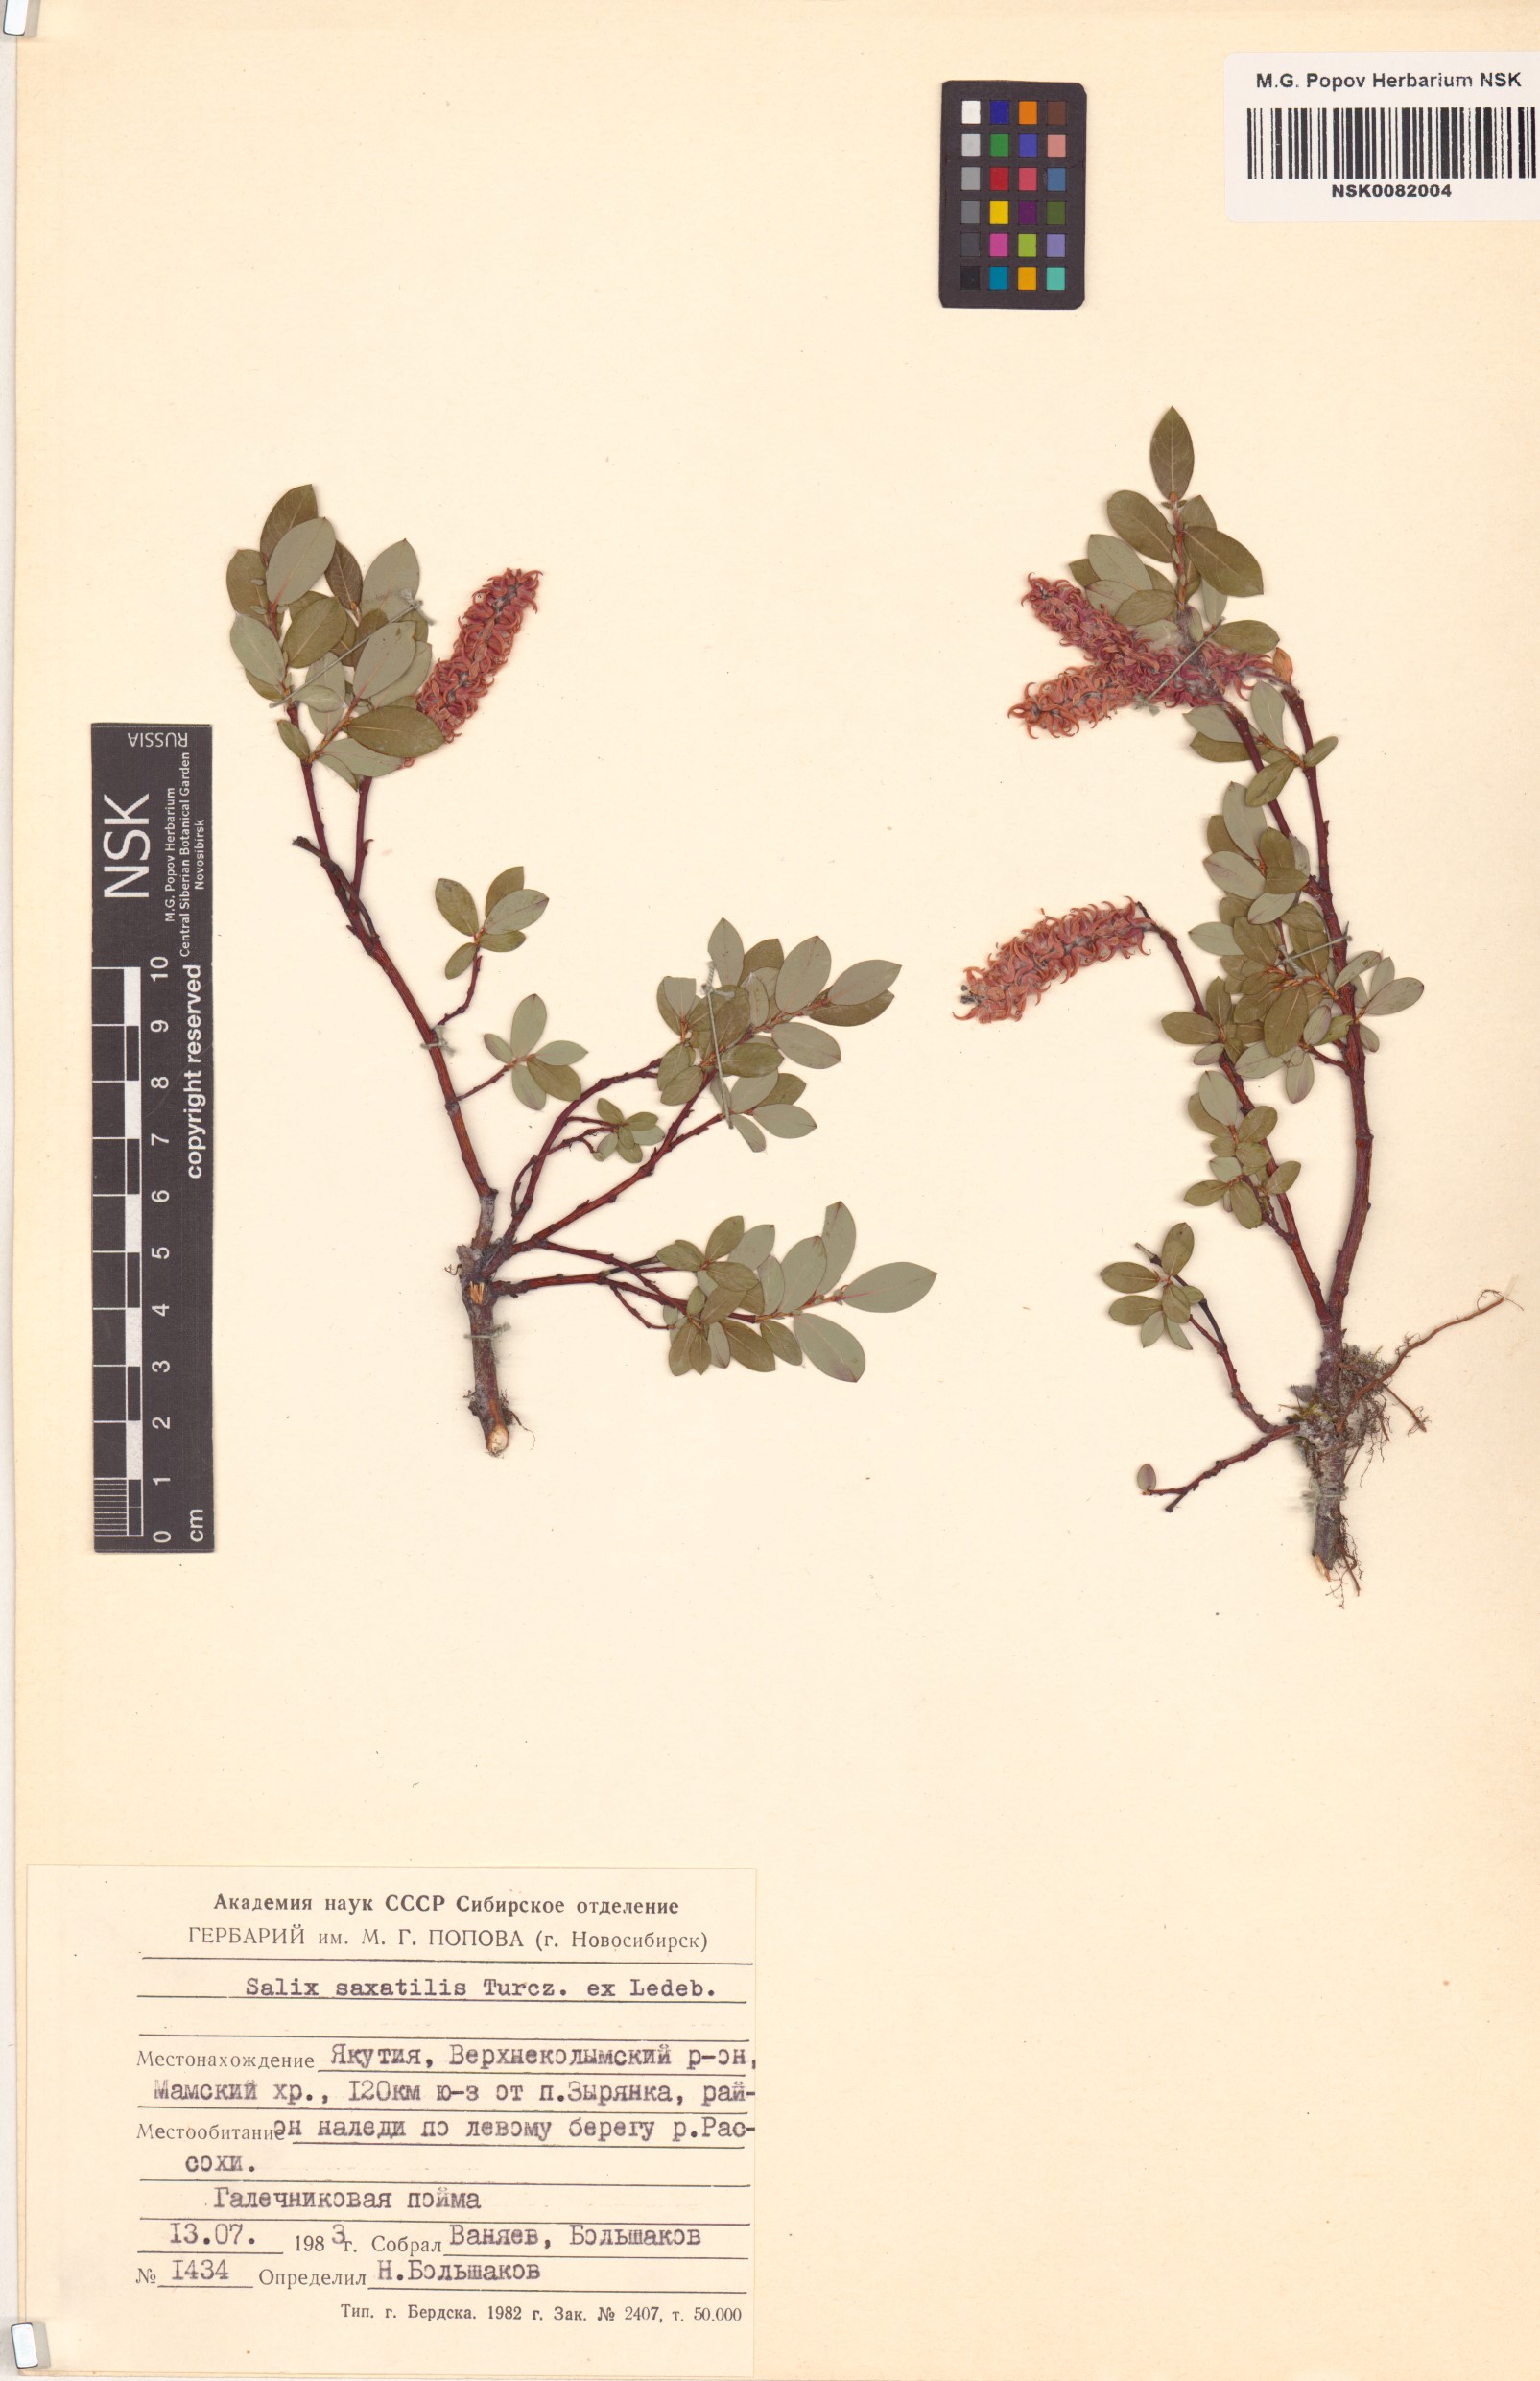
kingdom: Plantae
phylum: Tracheophyta
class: Magnoliopsida
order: Malpighiales
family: Salicaceae
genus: Salix
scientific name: Salix saxatilis
